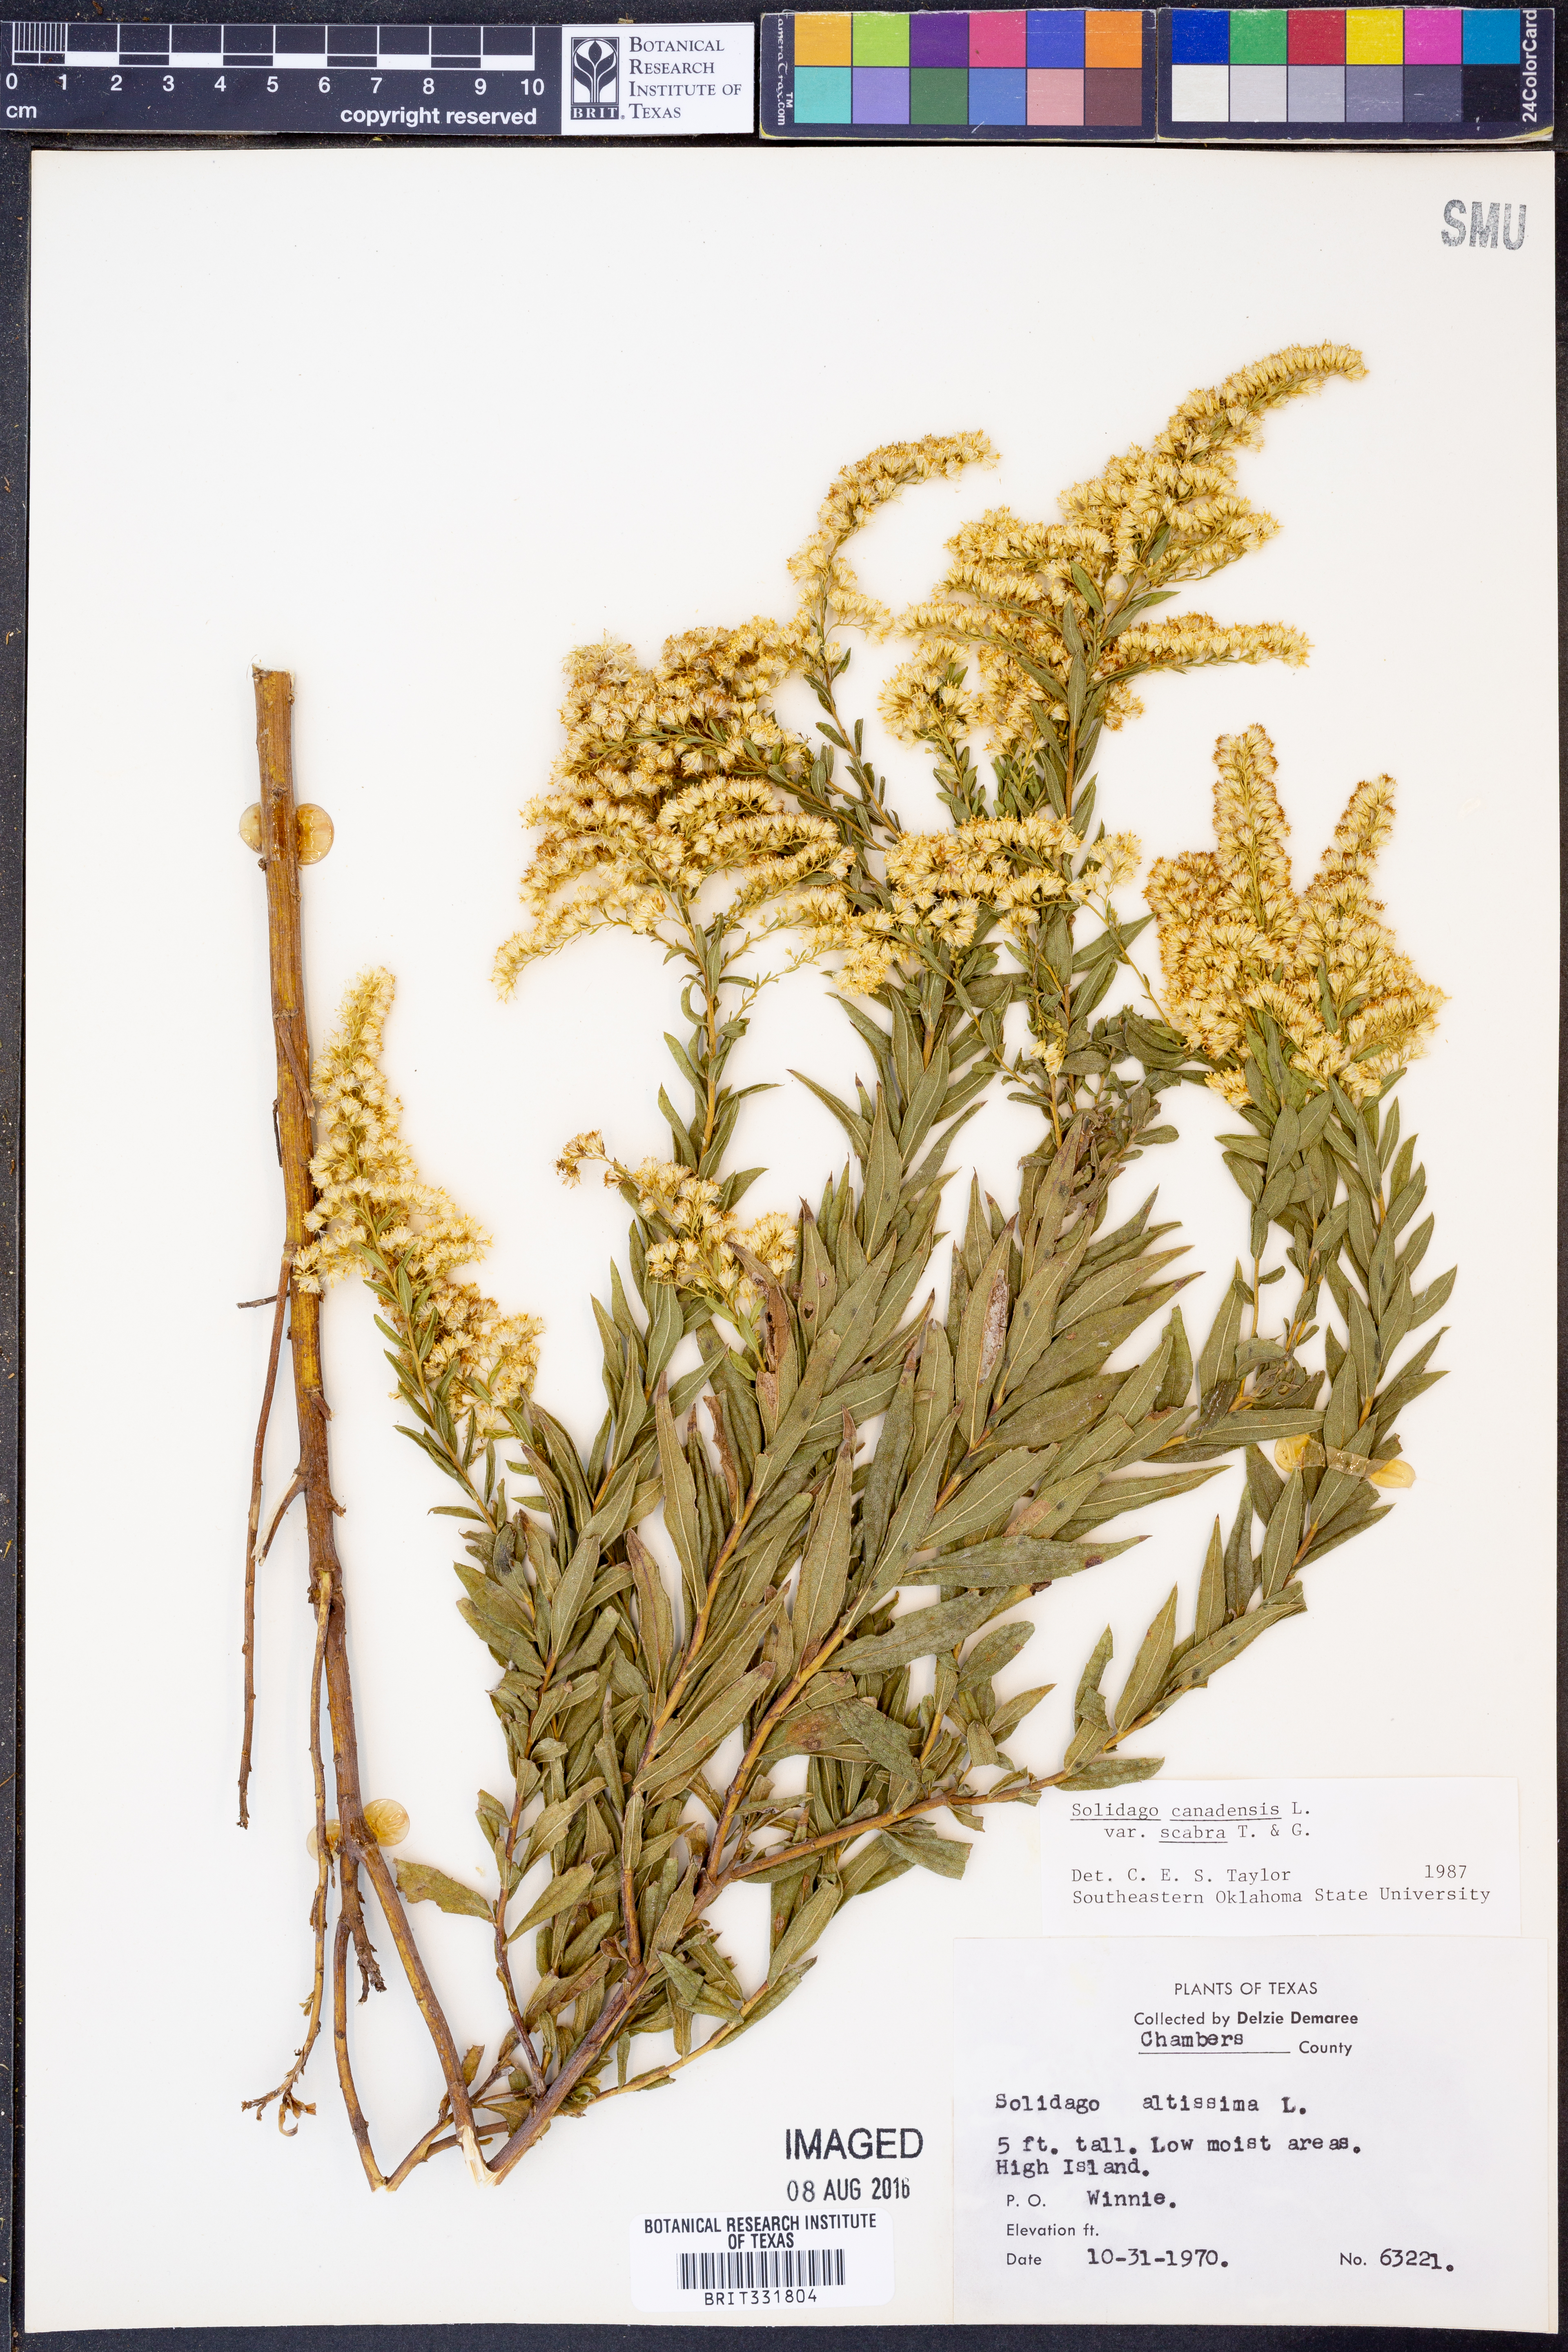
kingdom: Plantae
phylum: Tracheophyta
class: Magnoliopsida
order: Asterales
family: Asteraceae
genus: Solidago
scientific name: Solidago altissima
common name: Late goldenrod
